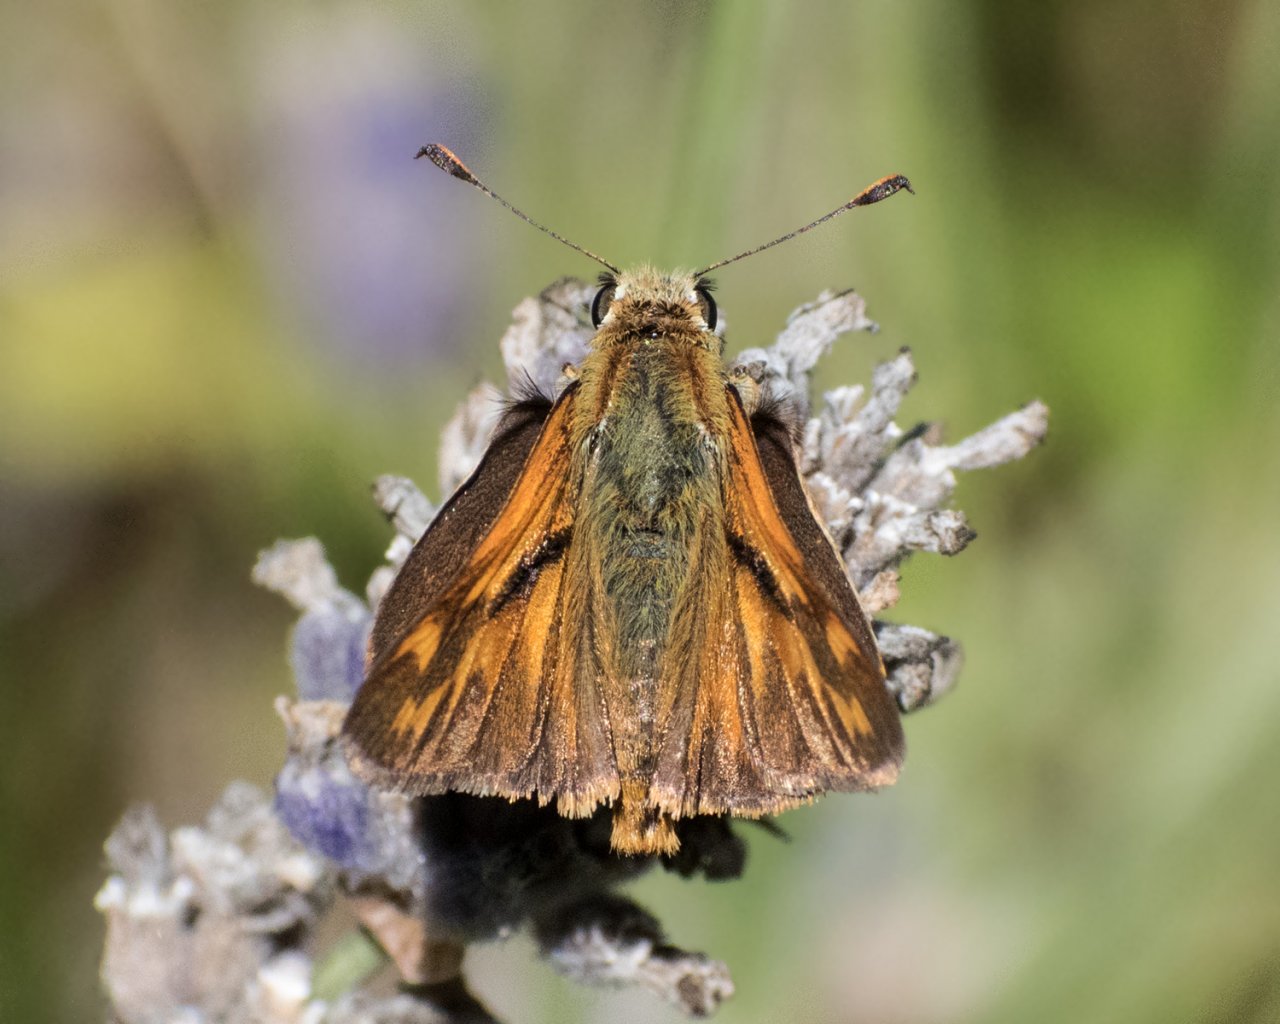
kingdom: Animalia
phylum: Arthropoda
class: Insecta
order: Lepidoptera
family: Hesperiidae
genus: Ochlodes
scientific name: Ochlodes sylvanoides
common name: Woodland Skipper
